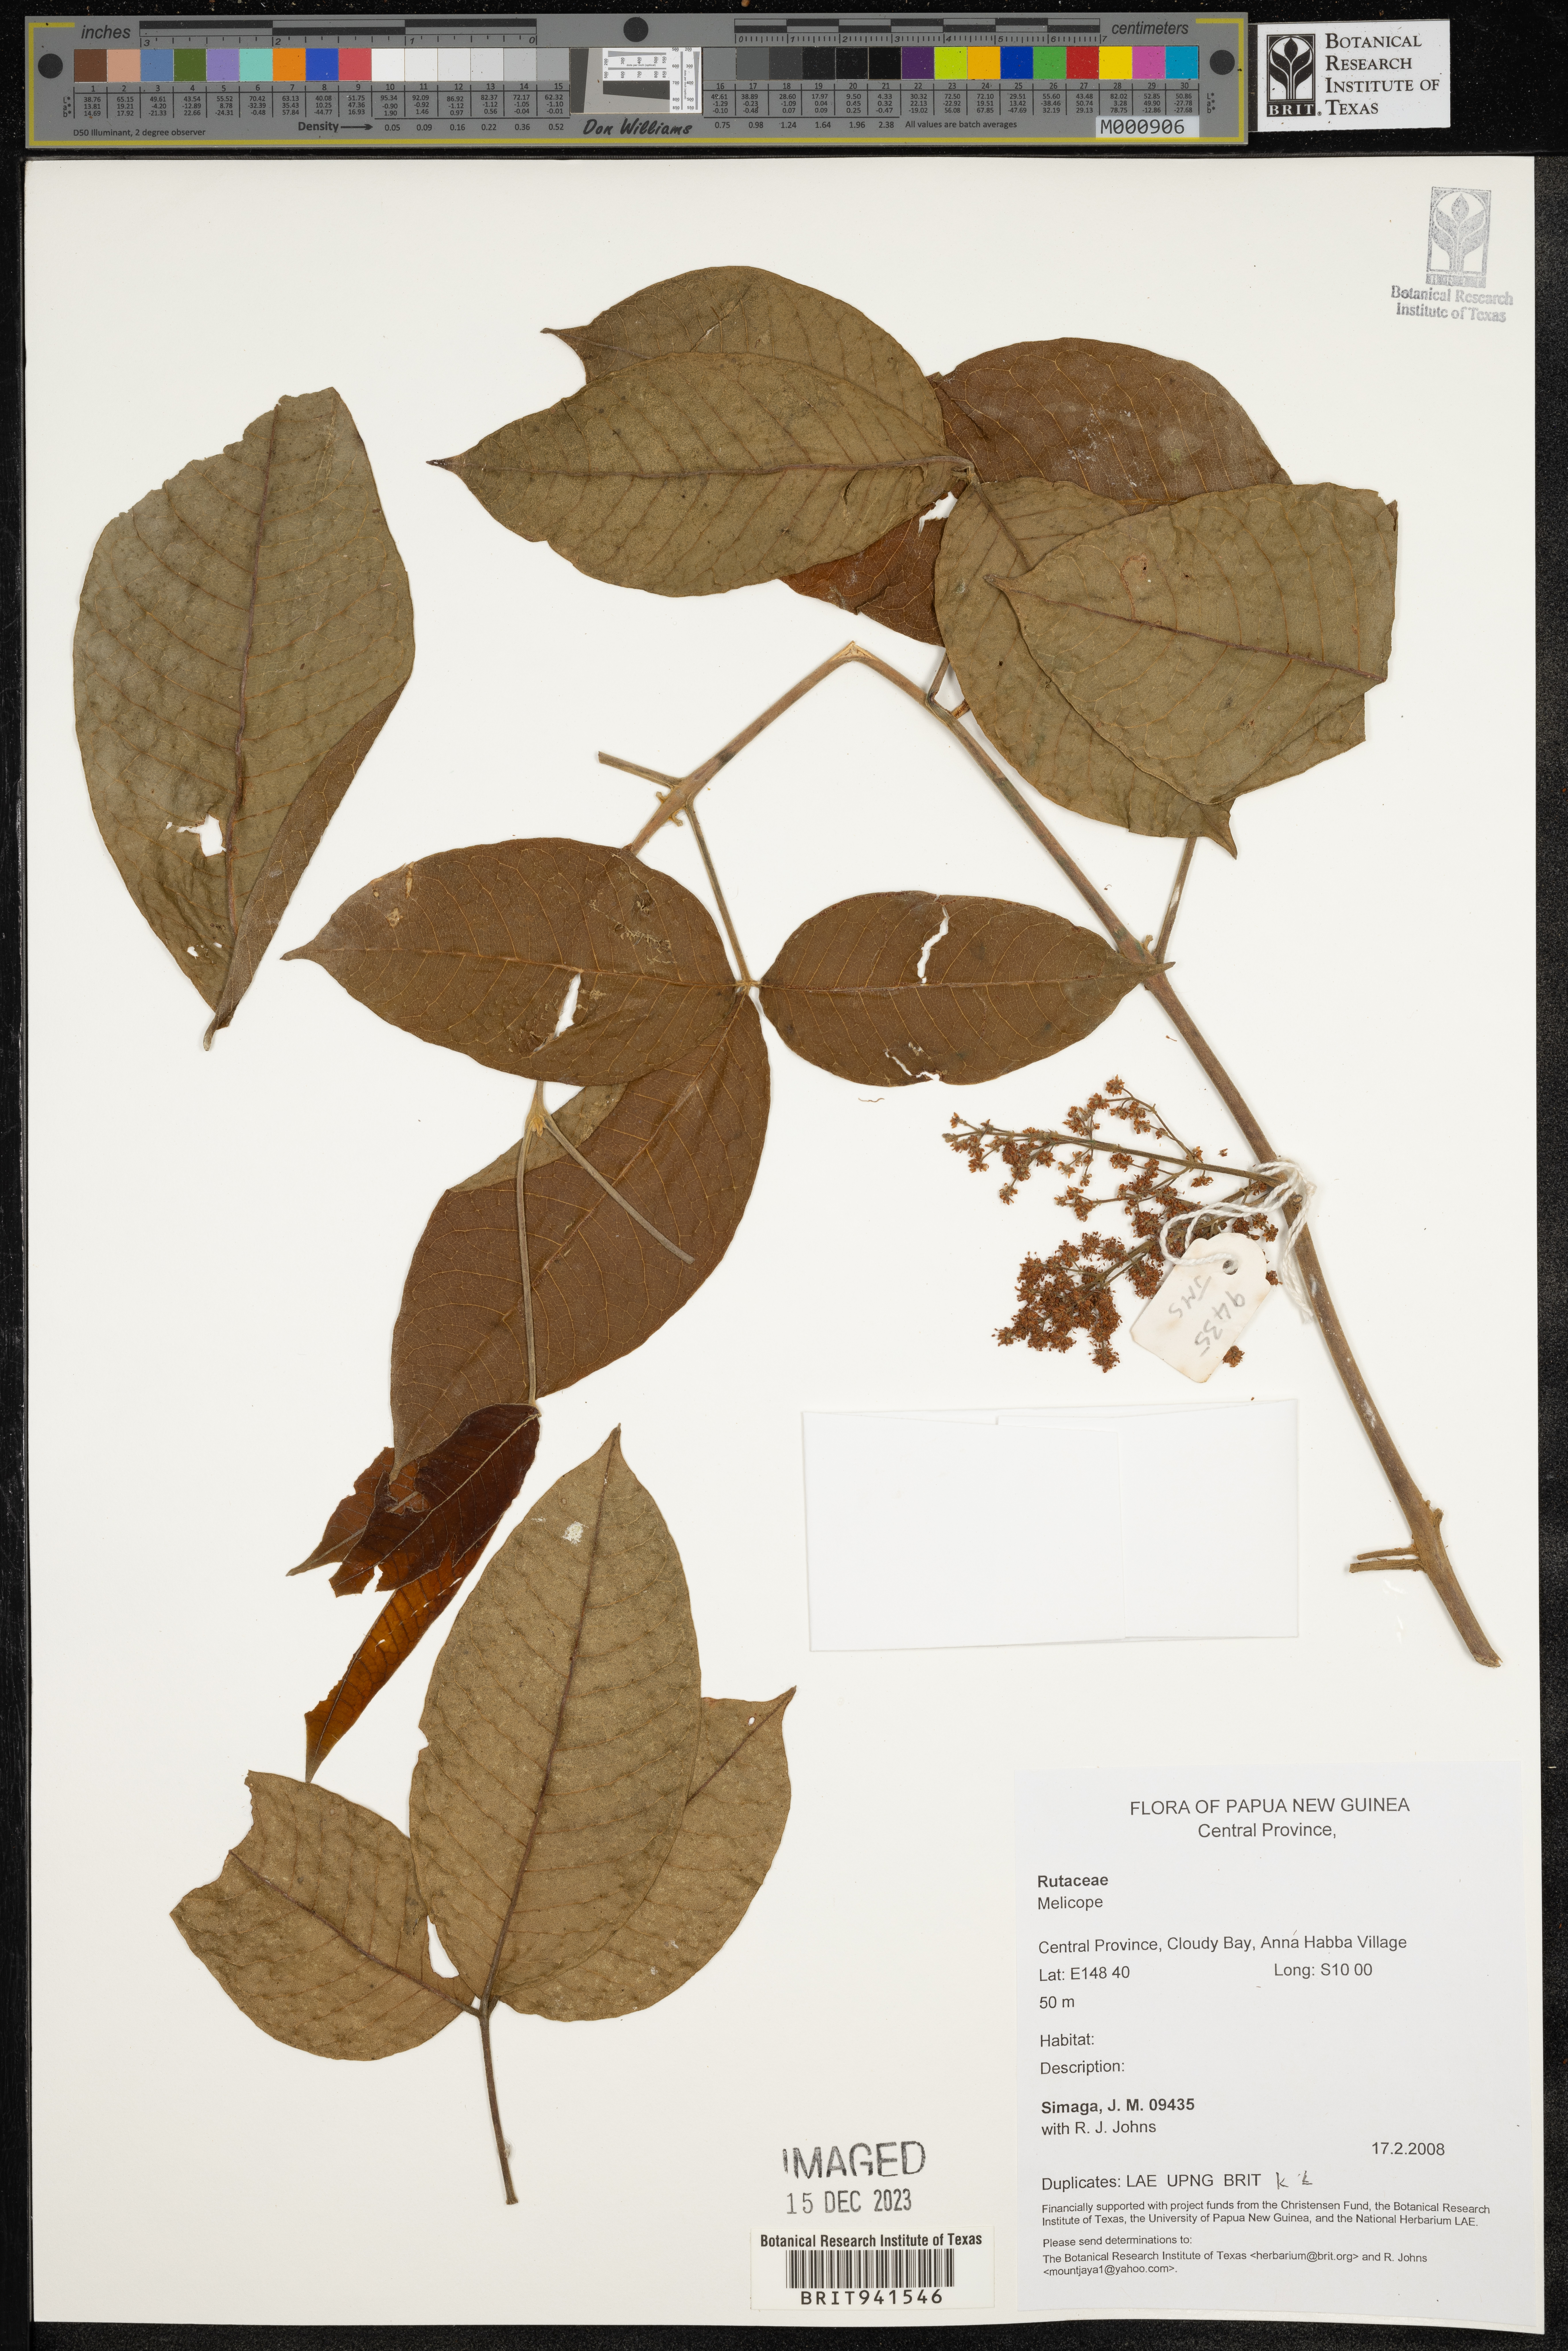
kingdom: Plantae
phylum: Tracheophyta
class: Magnoliopsida
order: Sapindales
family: Rutaceae
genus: Melicope
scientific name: Melicope
